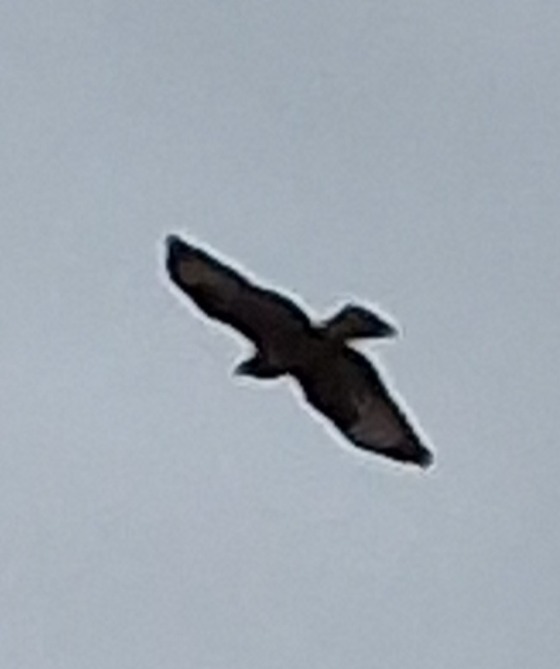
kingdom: Animalia
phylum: Chordata
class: Aves
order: Accipitriformes
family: Accipitridae
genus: Buteo
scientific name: Buteo buteo
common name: Musvåge
